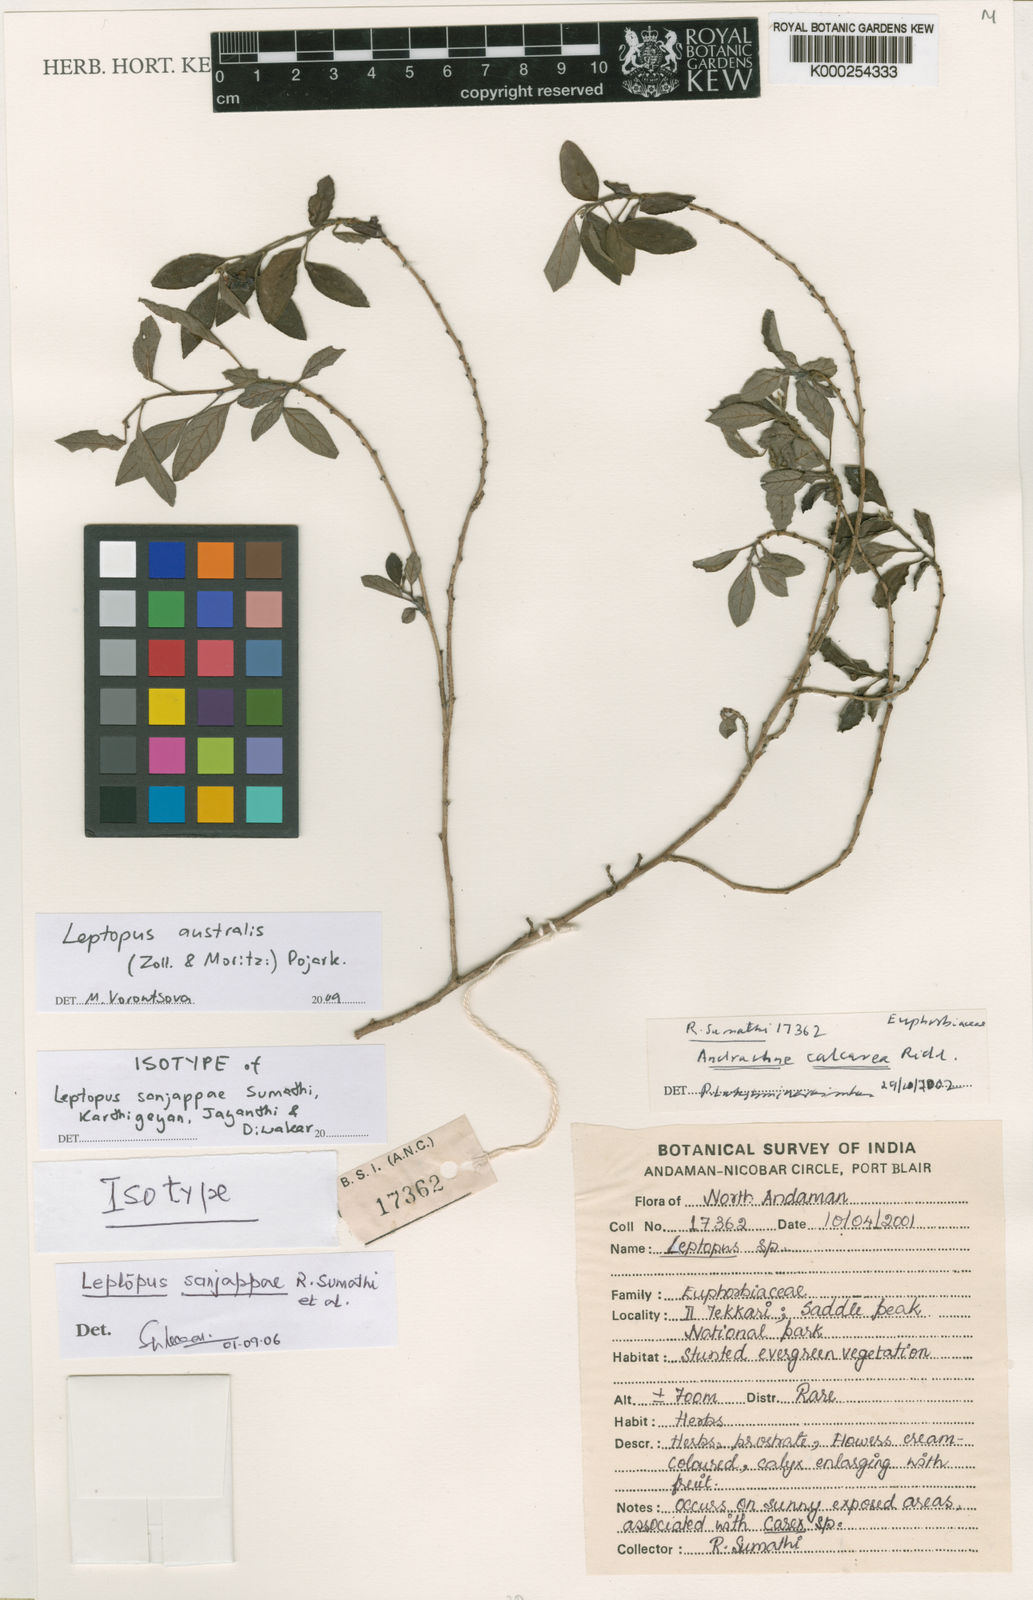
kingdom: Plantae
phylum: Tracheophyta
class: Magnoliopsida
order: Malpighiales
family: Phyllanthaceae
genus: Leptopus
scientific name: Leptopus australis
